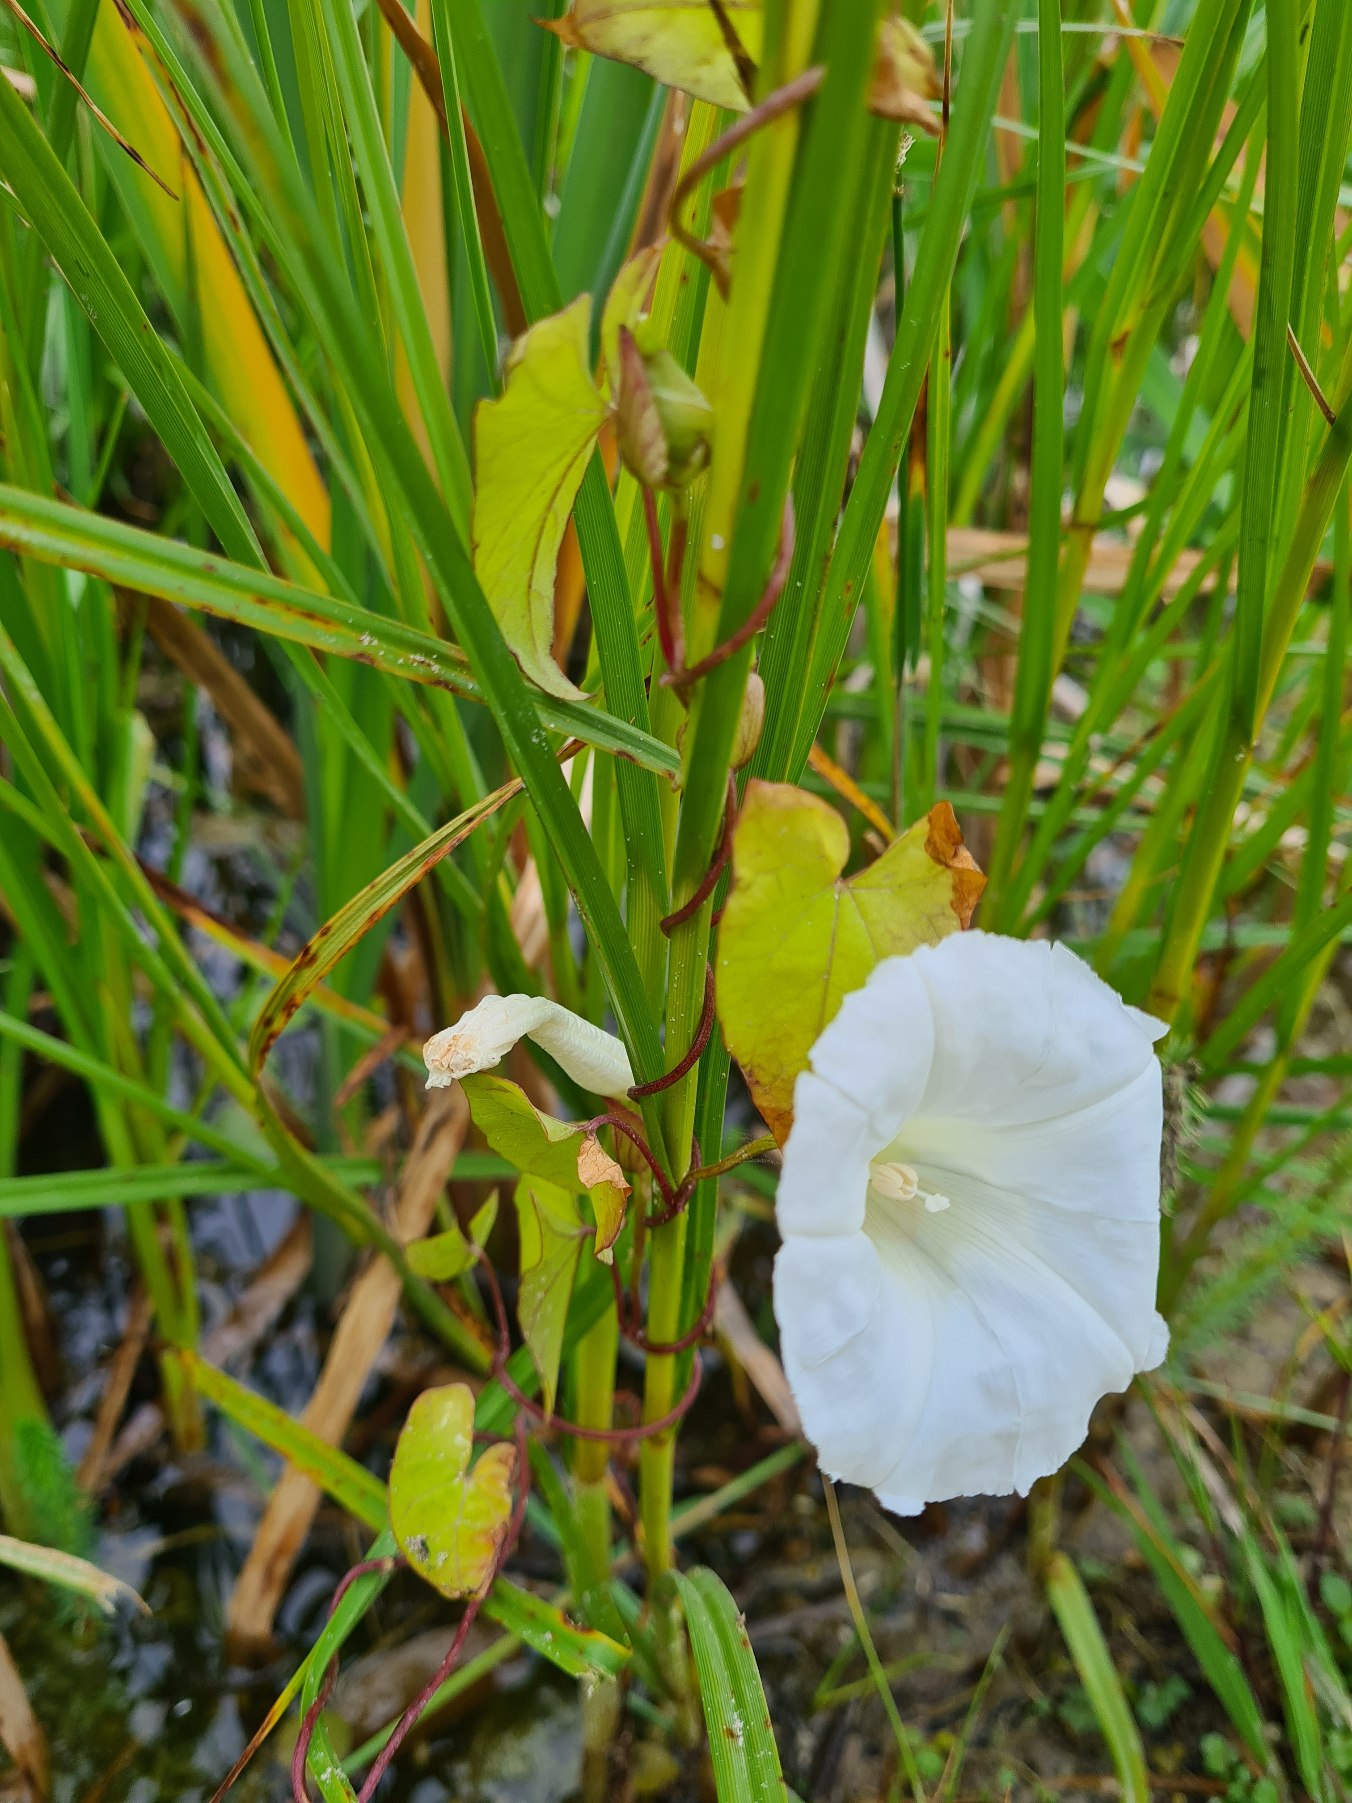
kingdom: Plantae
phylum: Tracheophyta
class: Magnoliopsida
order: Solanales
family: Convolvulaceae
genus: Calystegia
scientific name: Calystegia sepium
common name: Gærde-snerle
